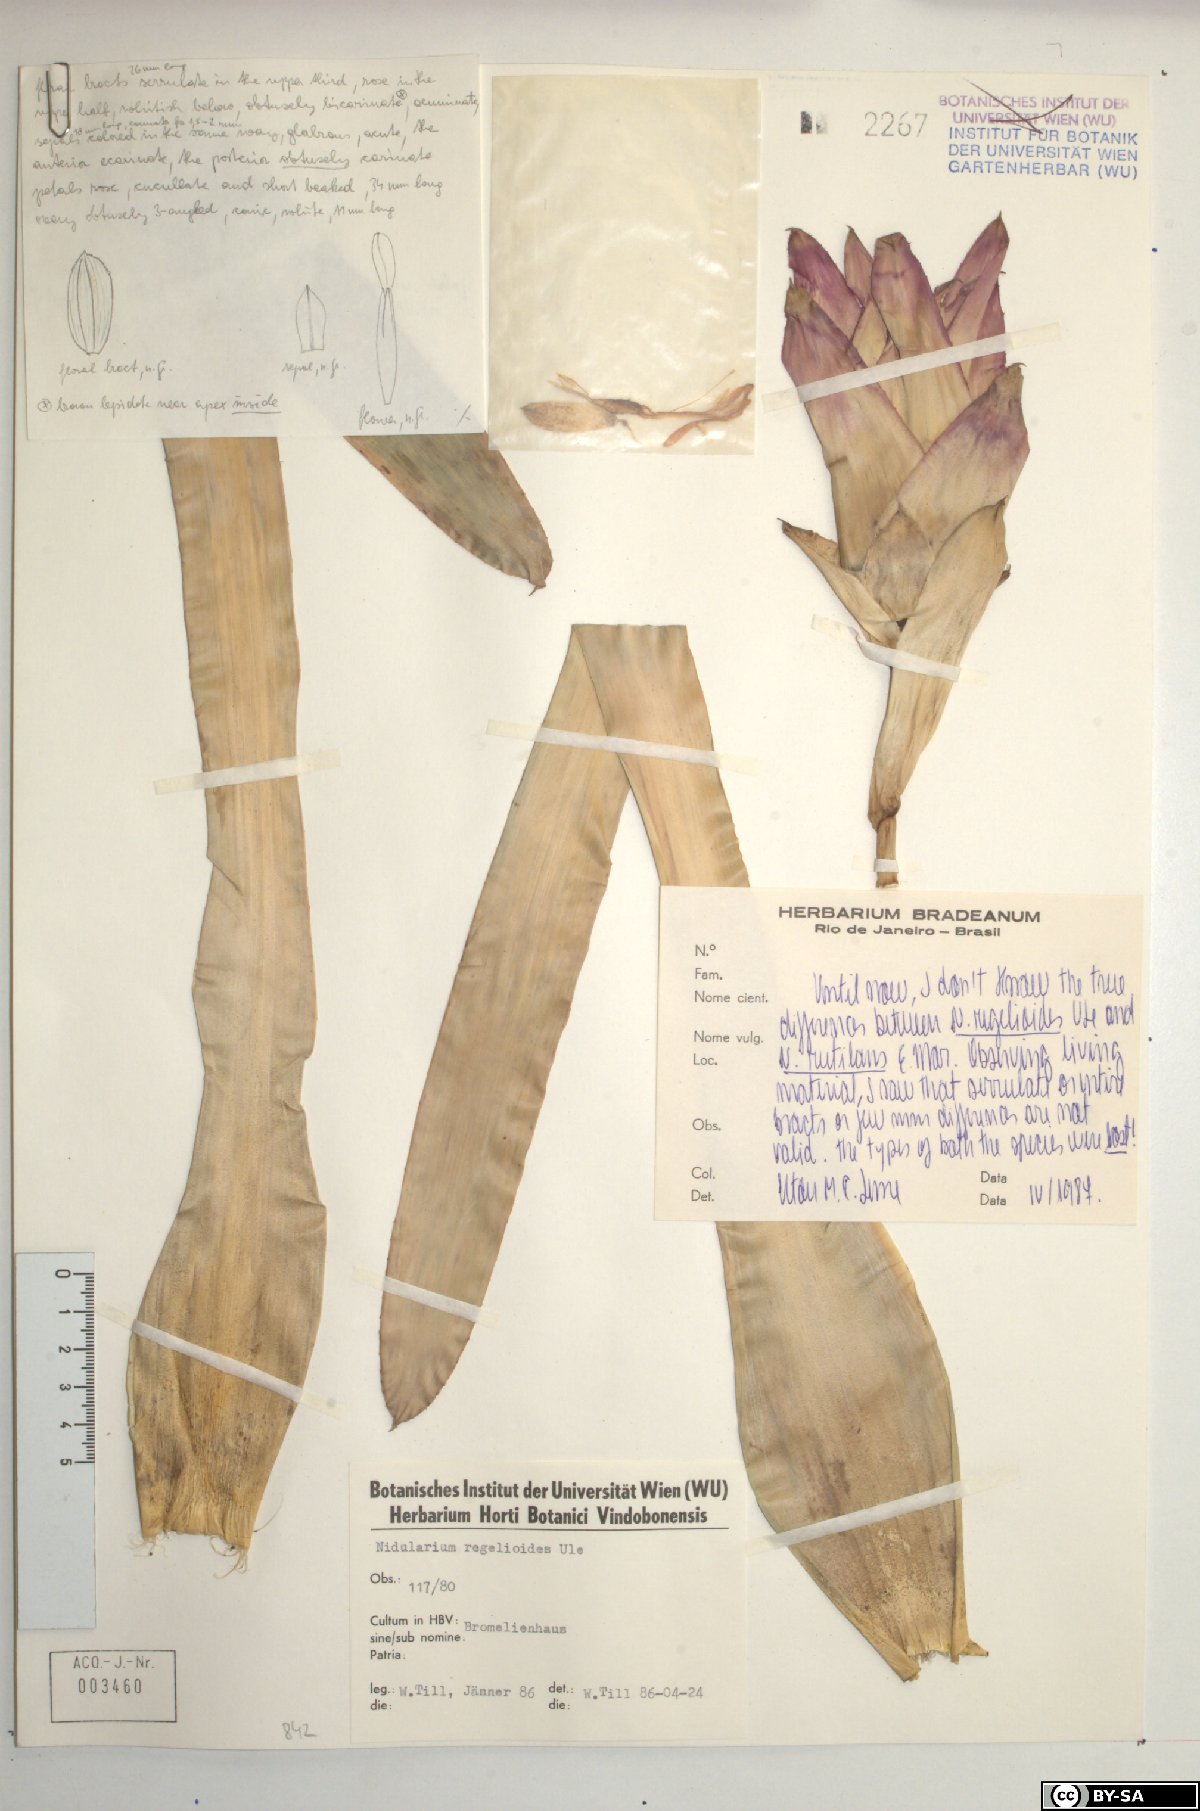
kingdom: Plantae
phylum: Tracheophyta
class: Liliopsida
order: Poales
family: Bromeliaceae
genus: Nidularium
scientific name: Nidularium rutilans
